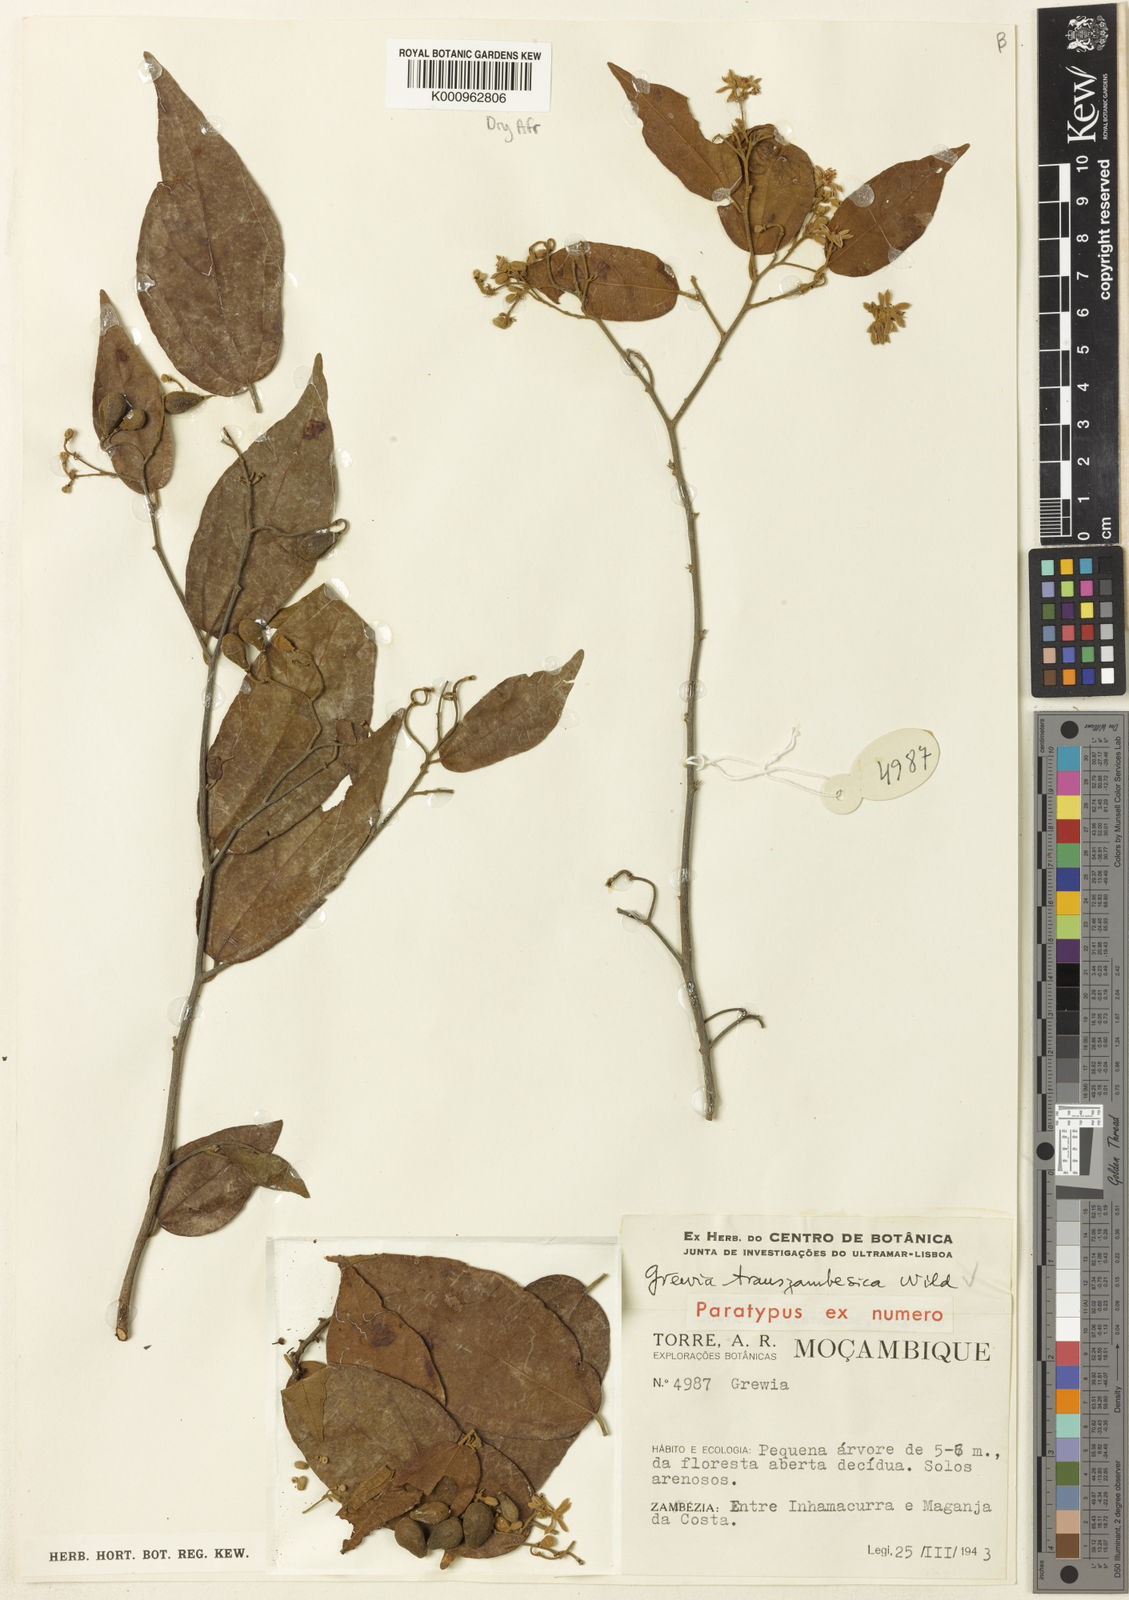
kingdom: Plantae
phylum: Tracheophyta
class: Magnoliopsida
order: Malvales
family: Malvaceae
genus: Microcos
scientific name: Microcos heterotricha
